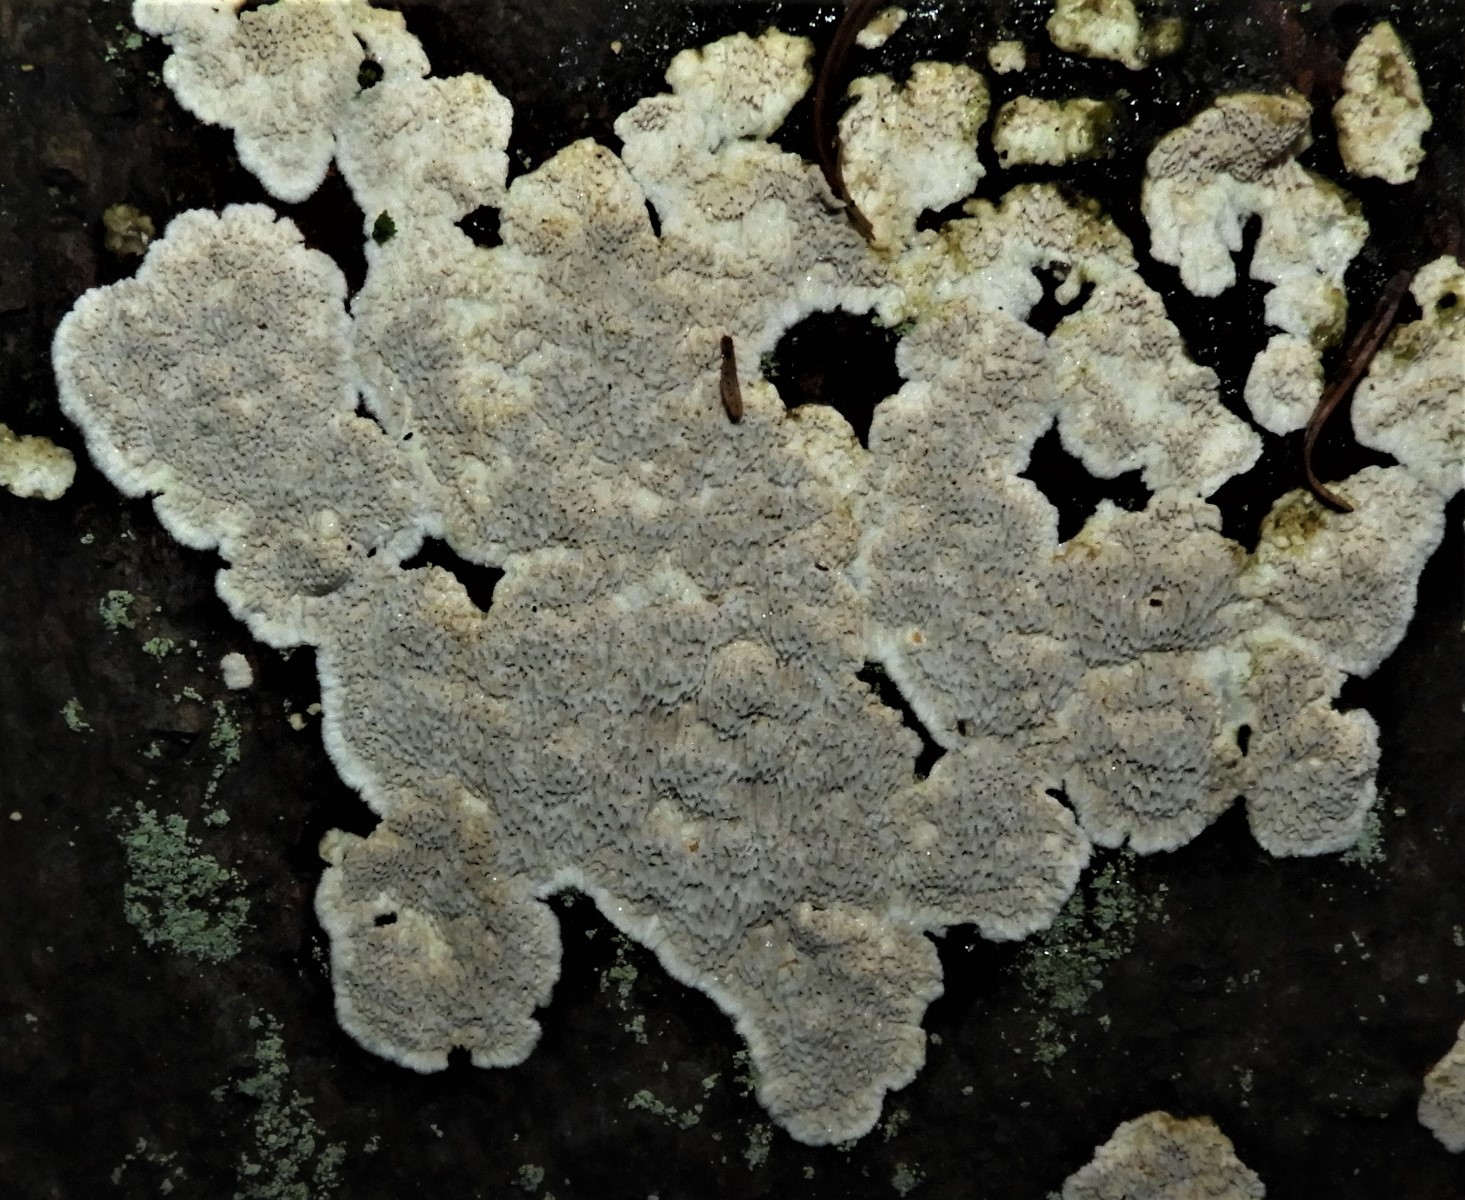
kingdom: Fungi
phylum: Basidiomycota
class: Agaricomycetes
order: Polyporales
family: Gelatoporiaceae
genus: Cinereomyces
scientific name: Cinereomyces lindbladii
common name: almindelig gråporesvamp
